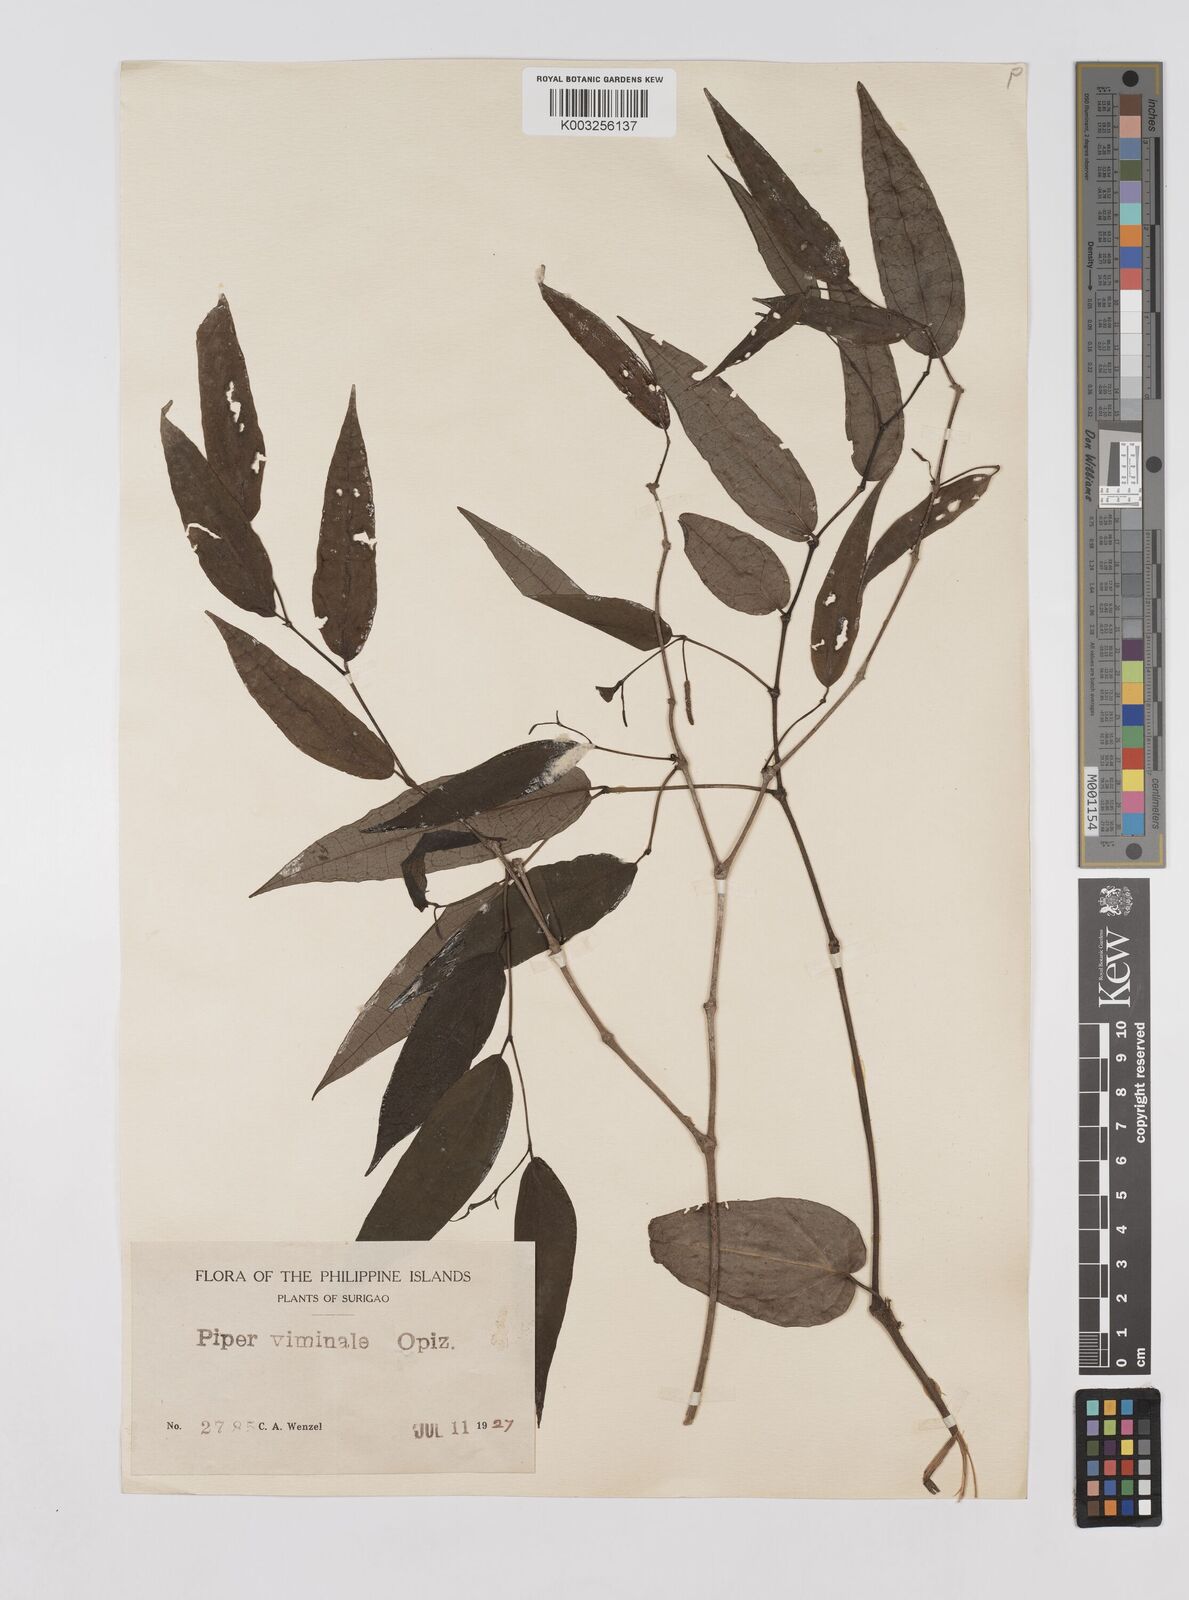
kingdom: Plantae
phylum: Tracheophyta
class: Magnoliopsida
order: Piperales
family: Piperaceae
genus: Piper
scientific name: Piper lanatum
